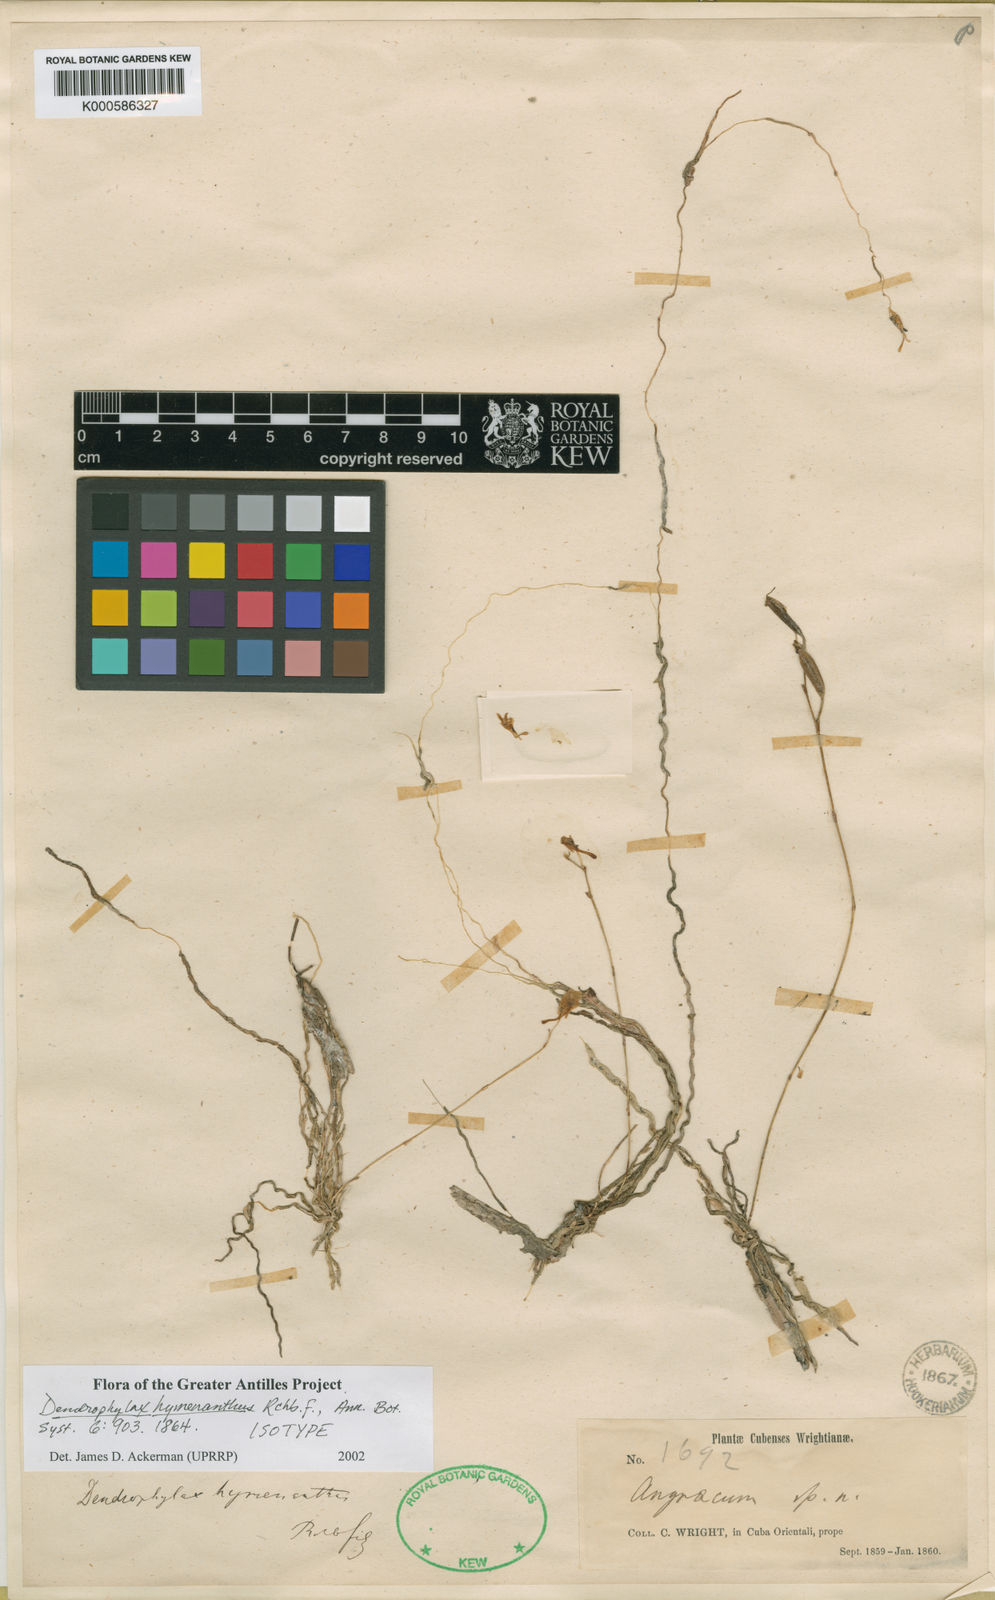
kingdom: Plantae
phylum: Tracheophyta
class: Liliopsida
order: Asparagales
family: Orchidaceae
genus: Dendrophylax
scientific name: Dendrophylax varius
